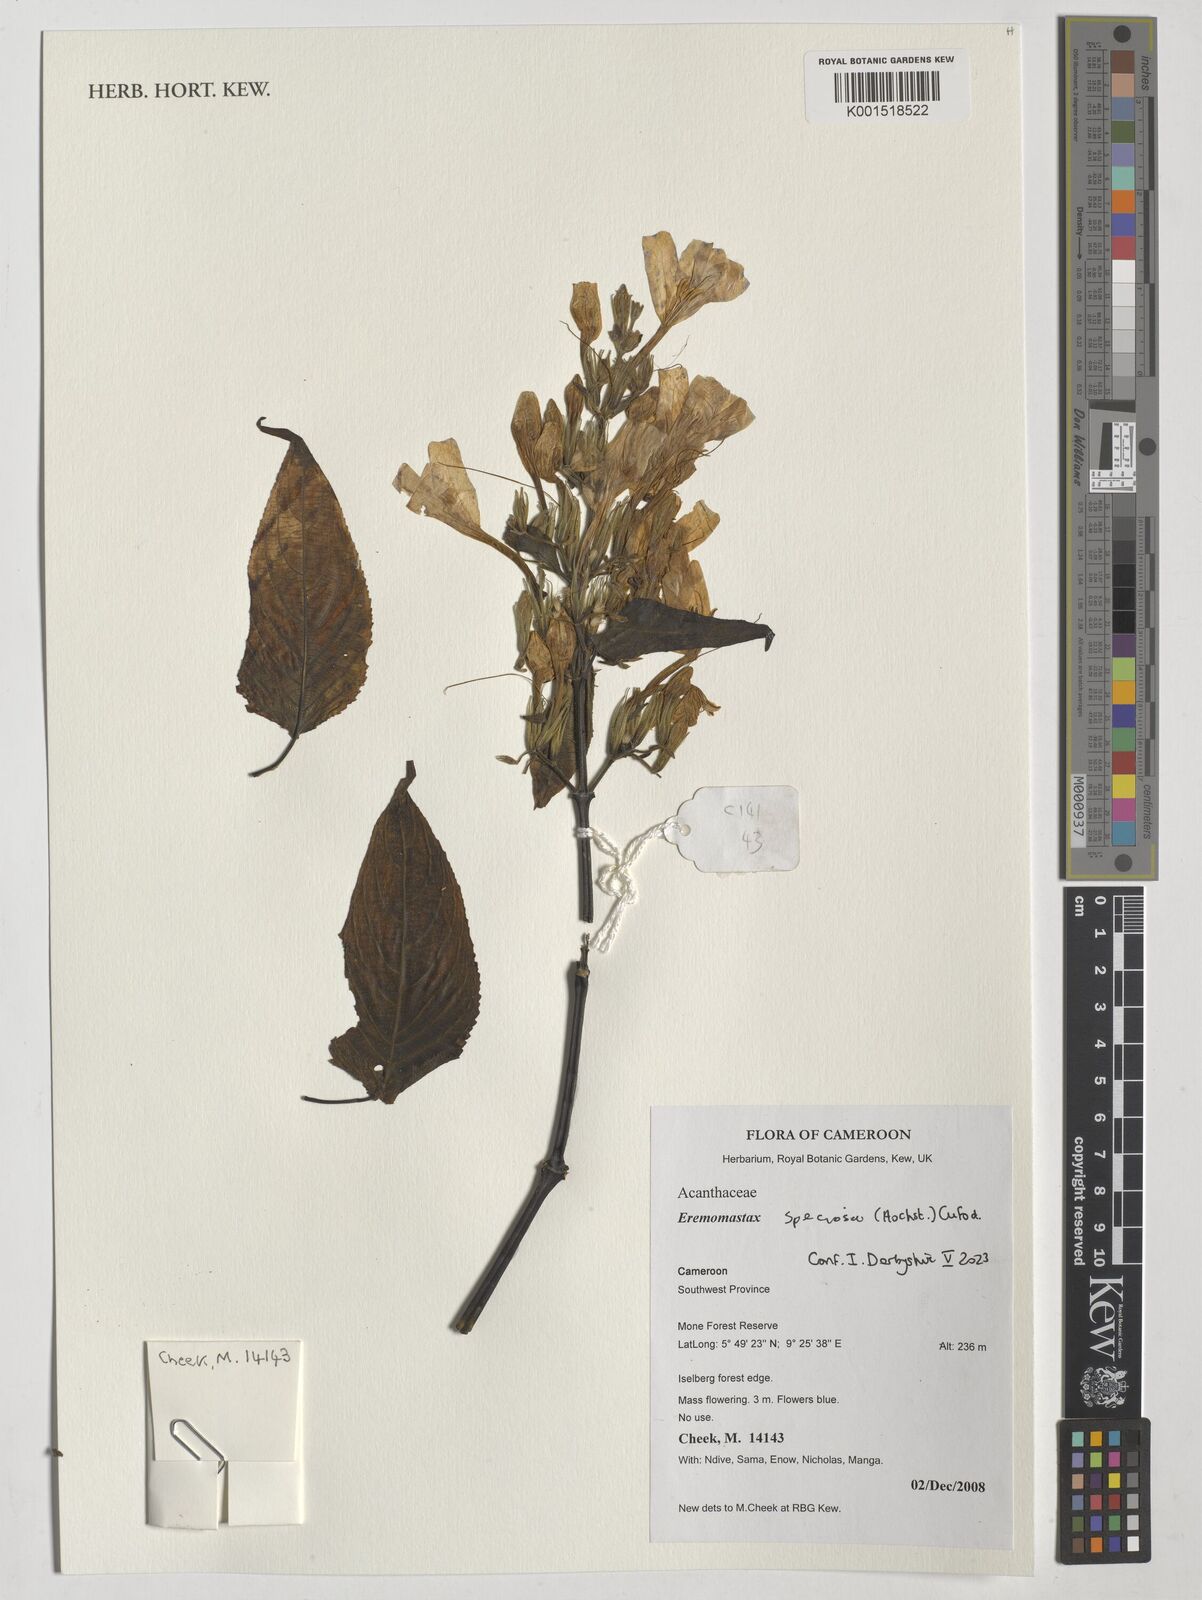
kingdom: Plantae
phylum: Tracheophyta
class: Magnoliopsida
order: Lamiales
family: Acanthaceae
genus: Eremomastax
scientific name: Eremomastax speciosa
